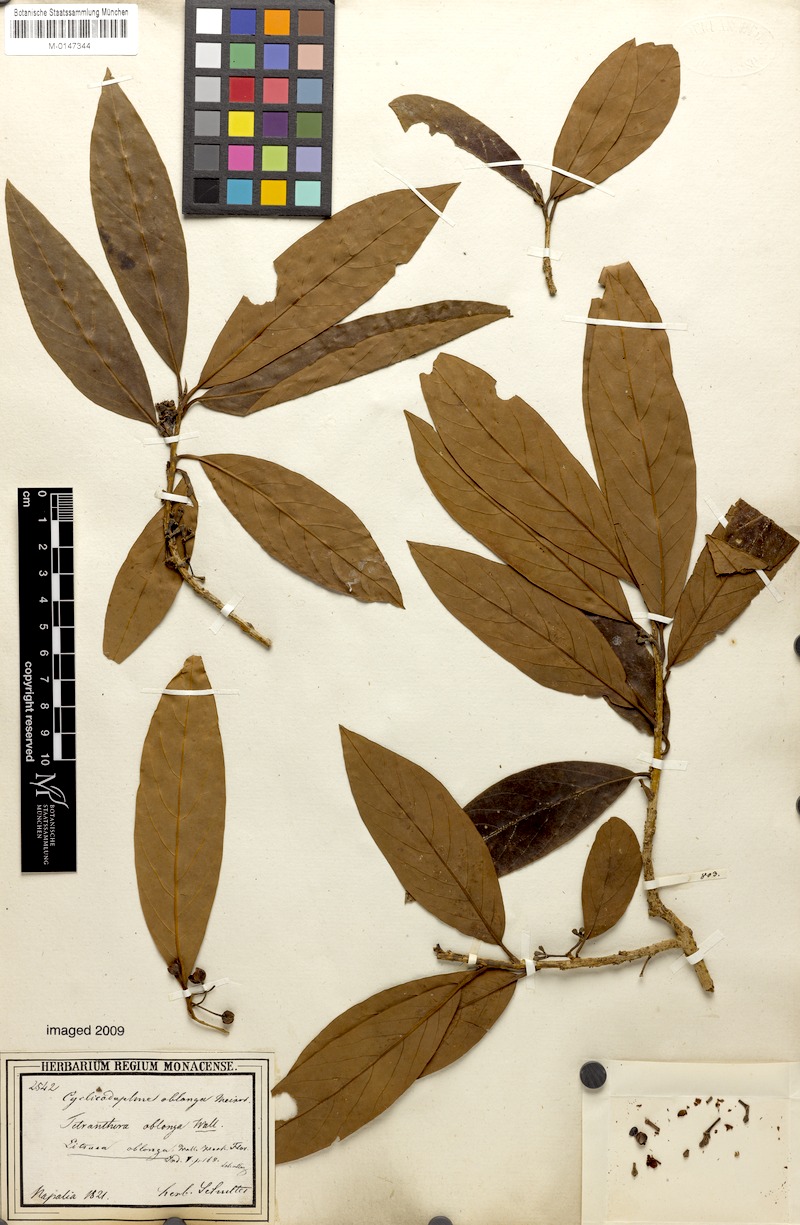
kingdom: Plantae
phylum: Tracheophyta
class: Magnoliopsida
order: Laurales
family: Lauraceae
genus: Litsea
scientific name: Litsea doshia
